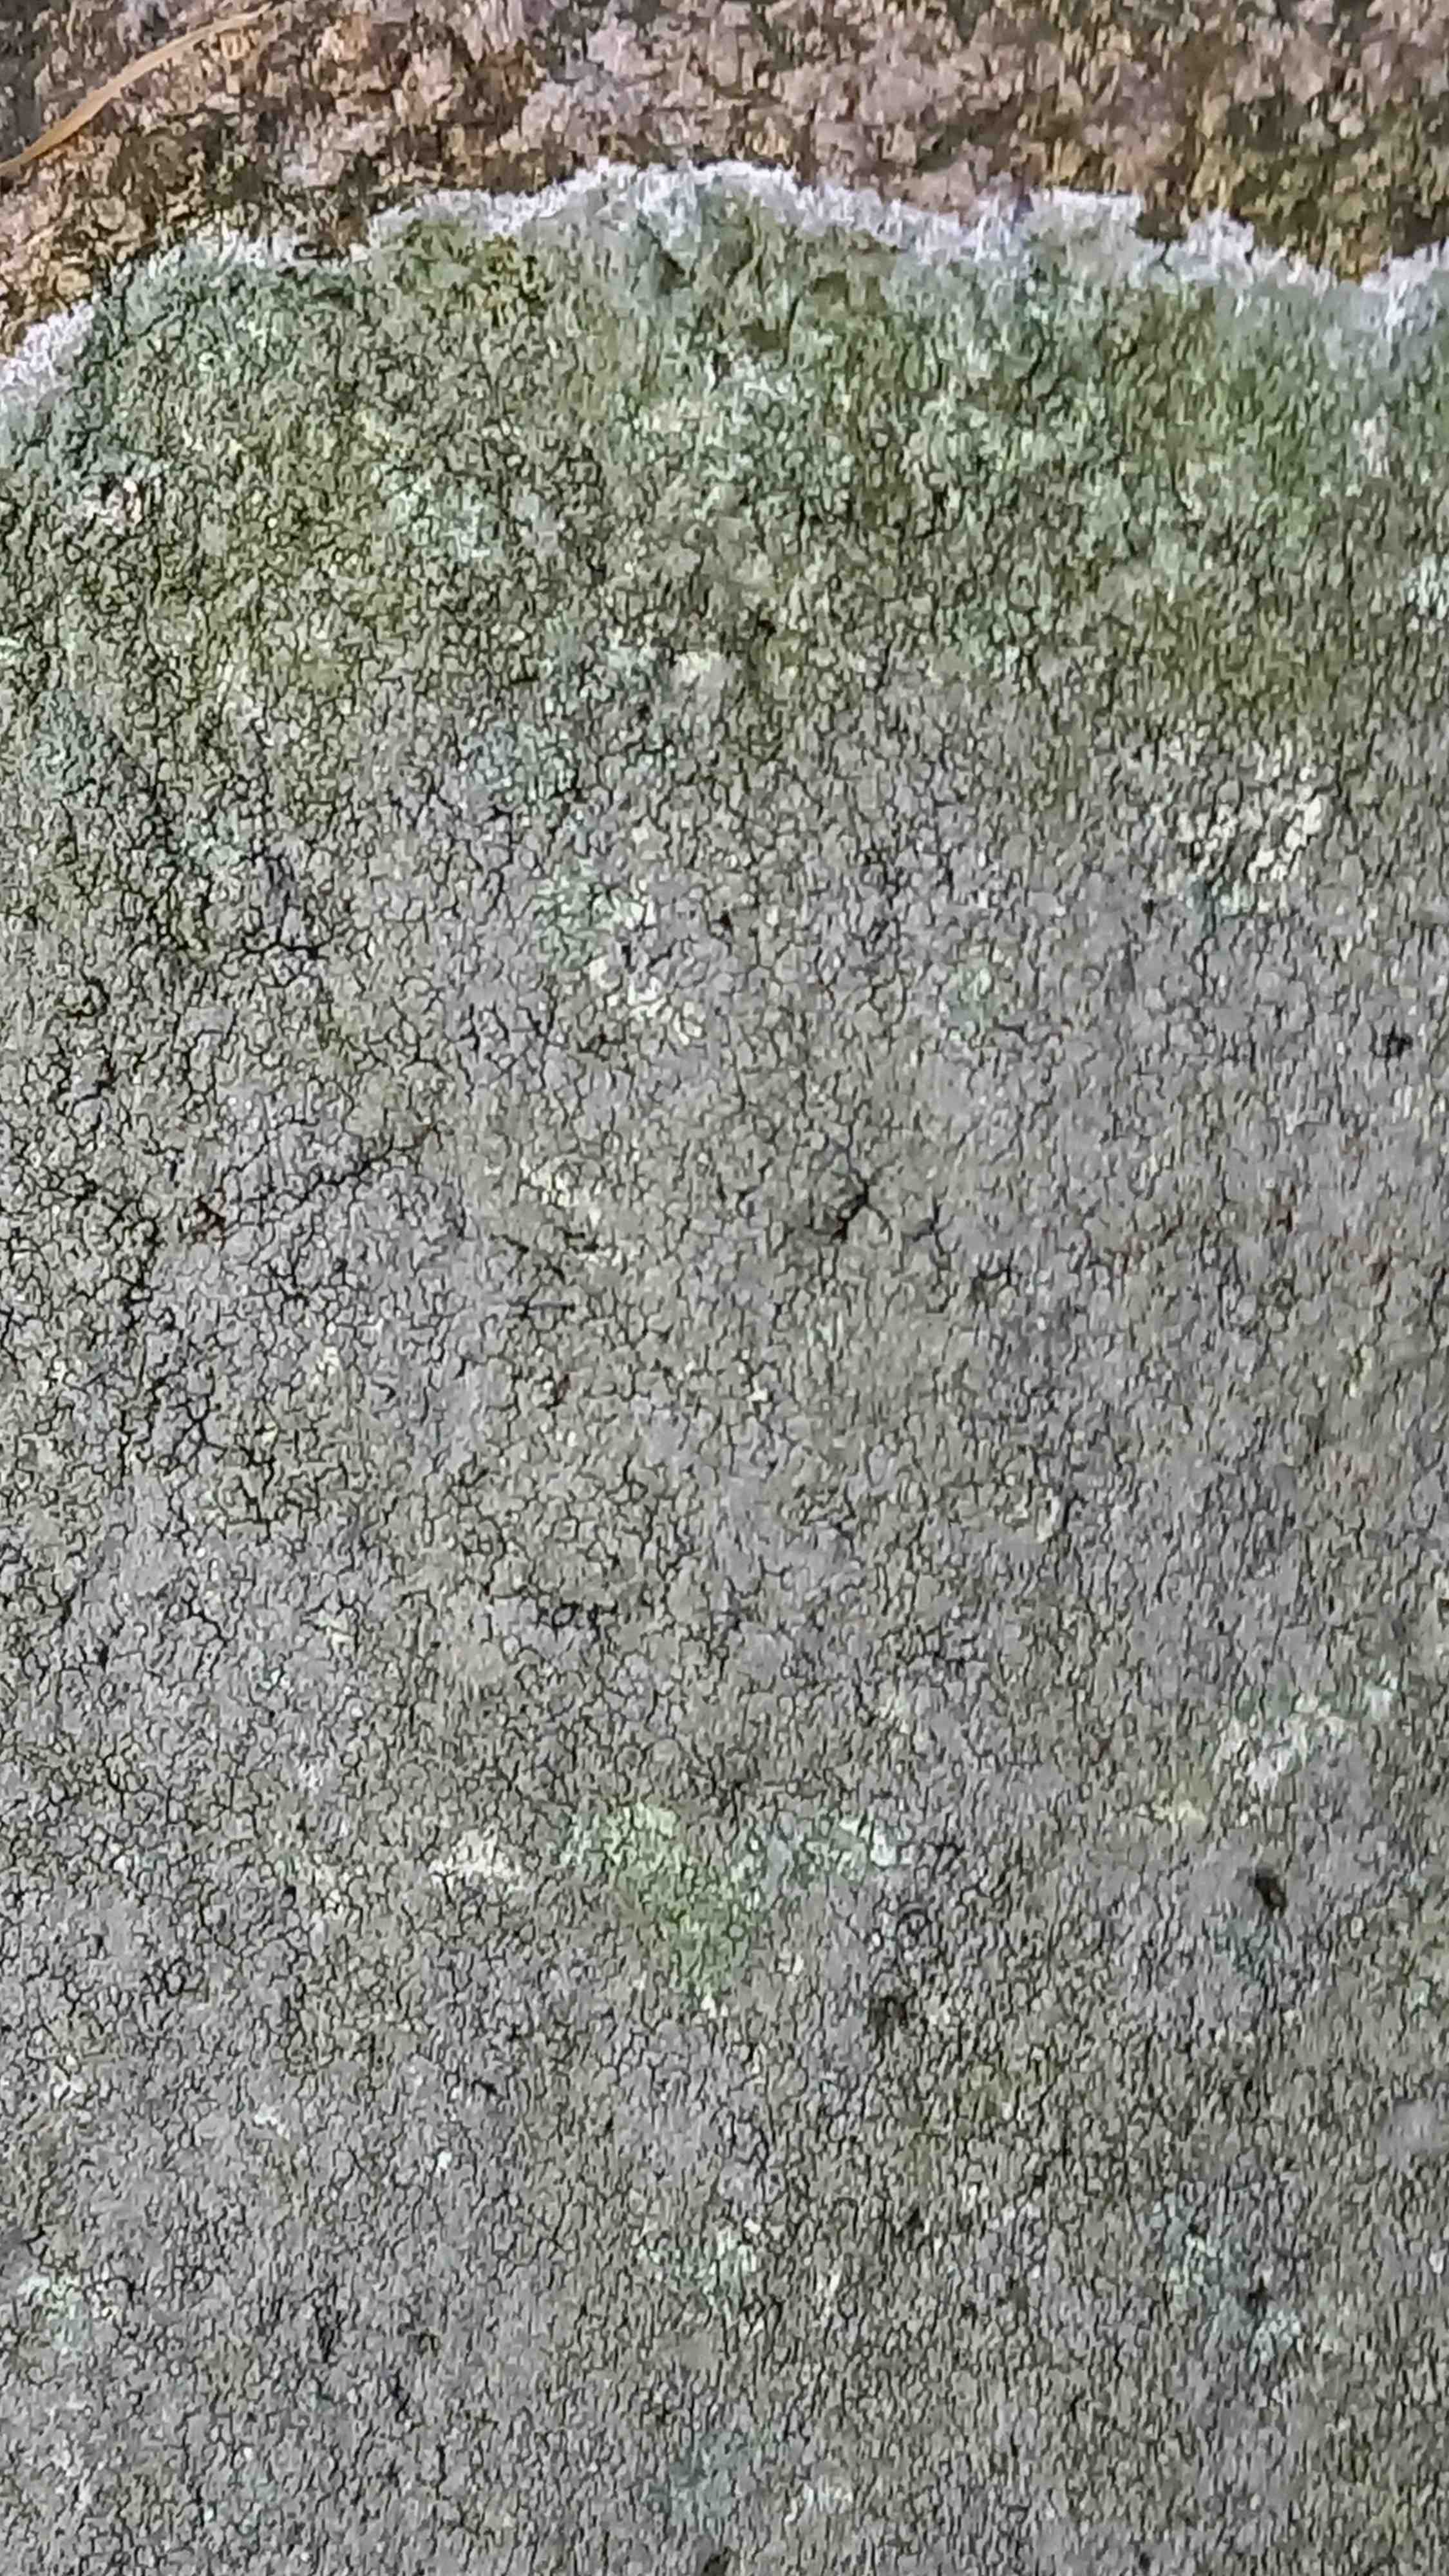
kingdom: Fungi
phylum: Ascomycota
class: Lecanoromycetes
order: Pertusariales
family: Megasporaceae
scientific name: Megasporaceae
